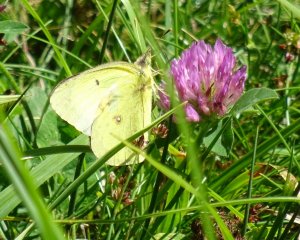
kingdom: Animalia
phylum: Arthropoda
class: Insecta
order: Lepidoptera
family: Pieridae
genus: Colias
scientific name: Colias philodice
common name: Clouded Sulphur
